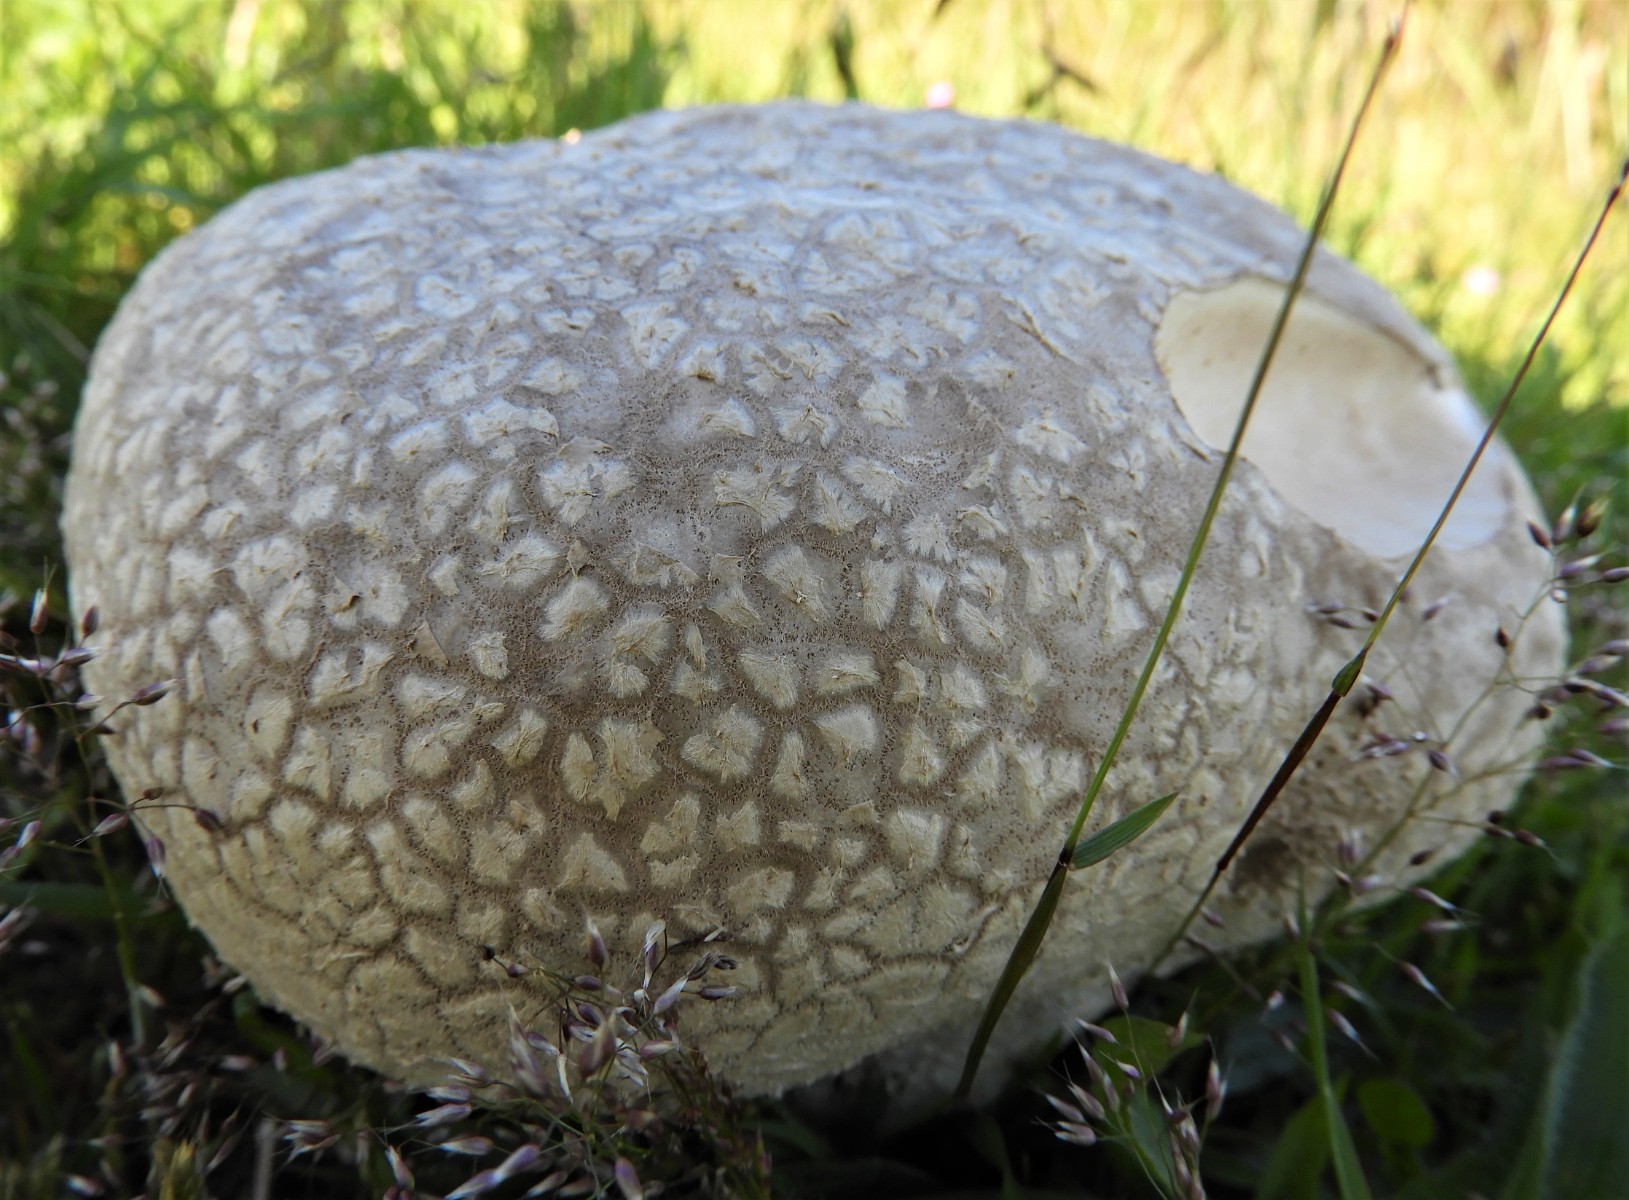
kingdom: Fungi
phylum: Basidiomycota
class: Agaricomycetes
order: Agaricales
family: Lycoperdaceae
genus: Bovistella
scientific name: Bovistella utriformis
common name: skællet støvbold
